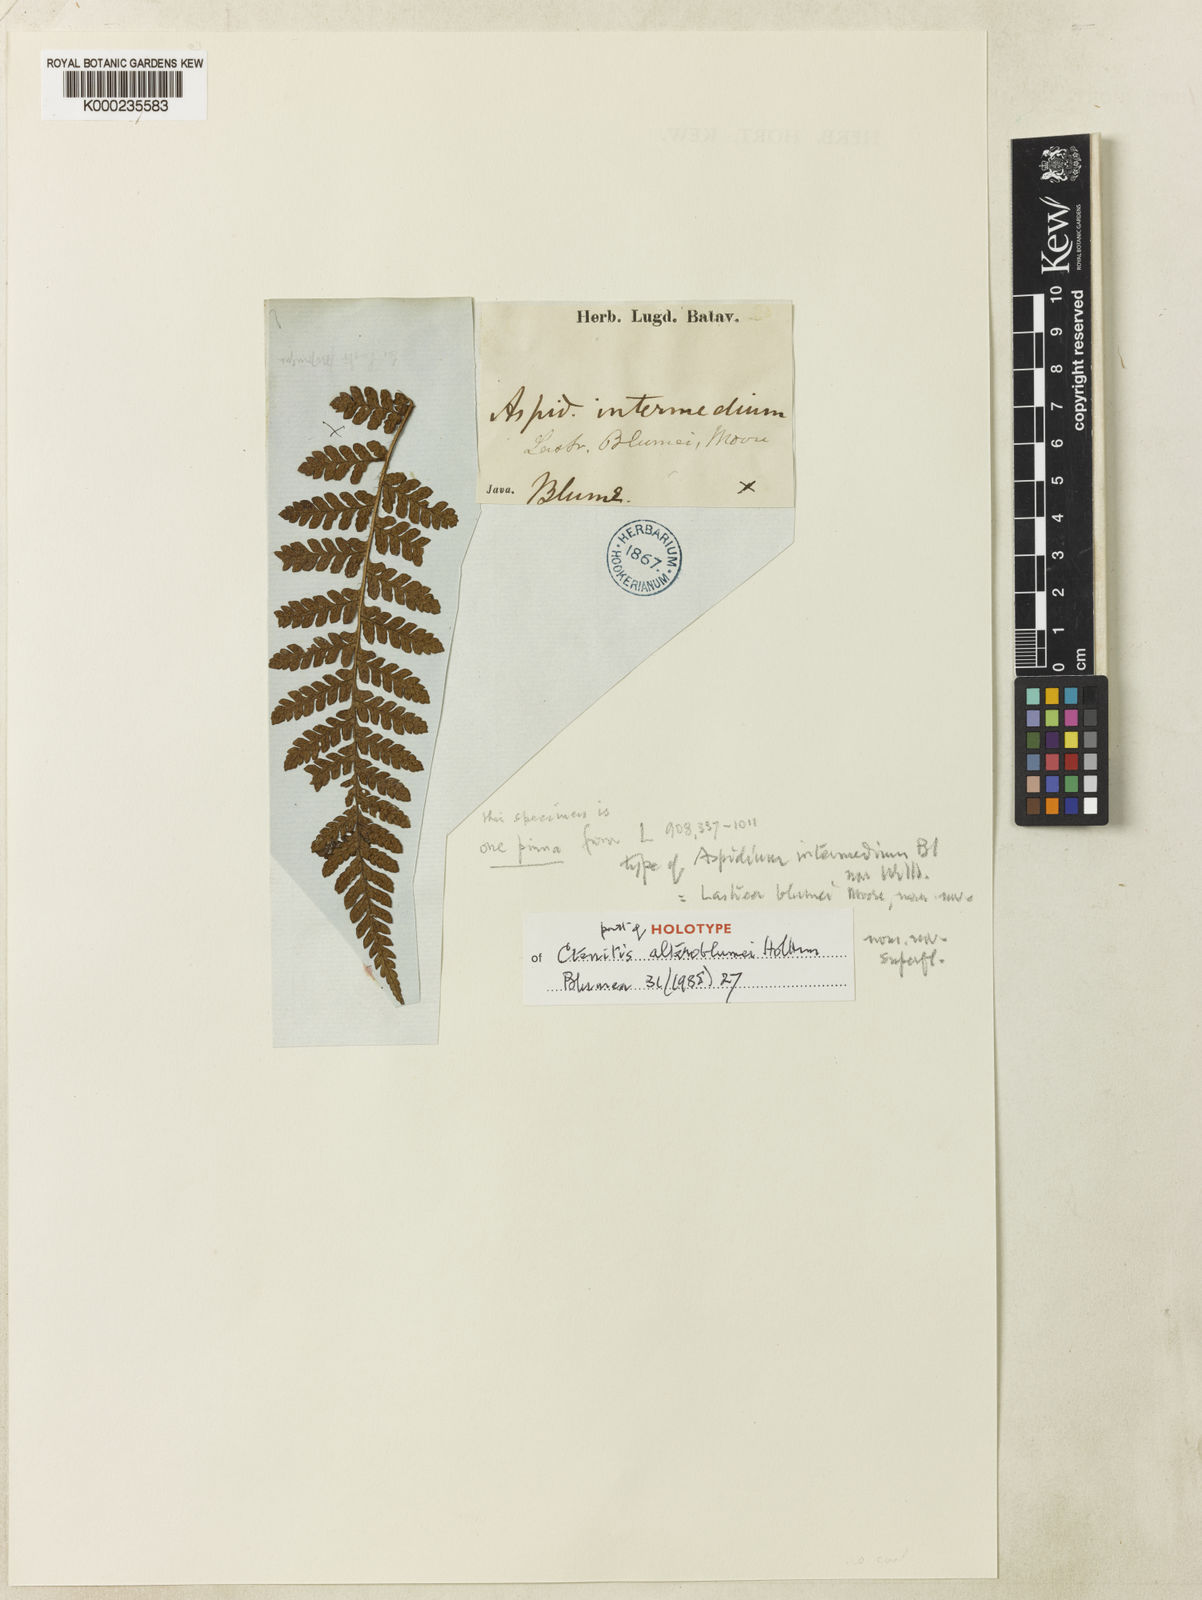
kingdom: Plantae
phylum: Tracheophyta
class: Polypodiopsida
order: Polypodiales
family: Dryopteridaceae
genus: Ctenitis
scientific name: Ctenitis alteroblumei
